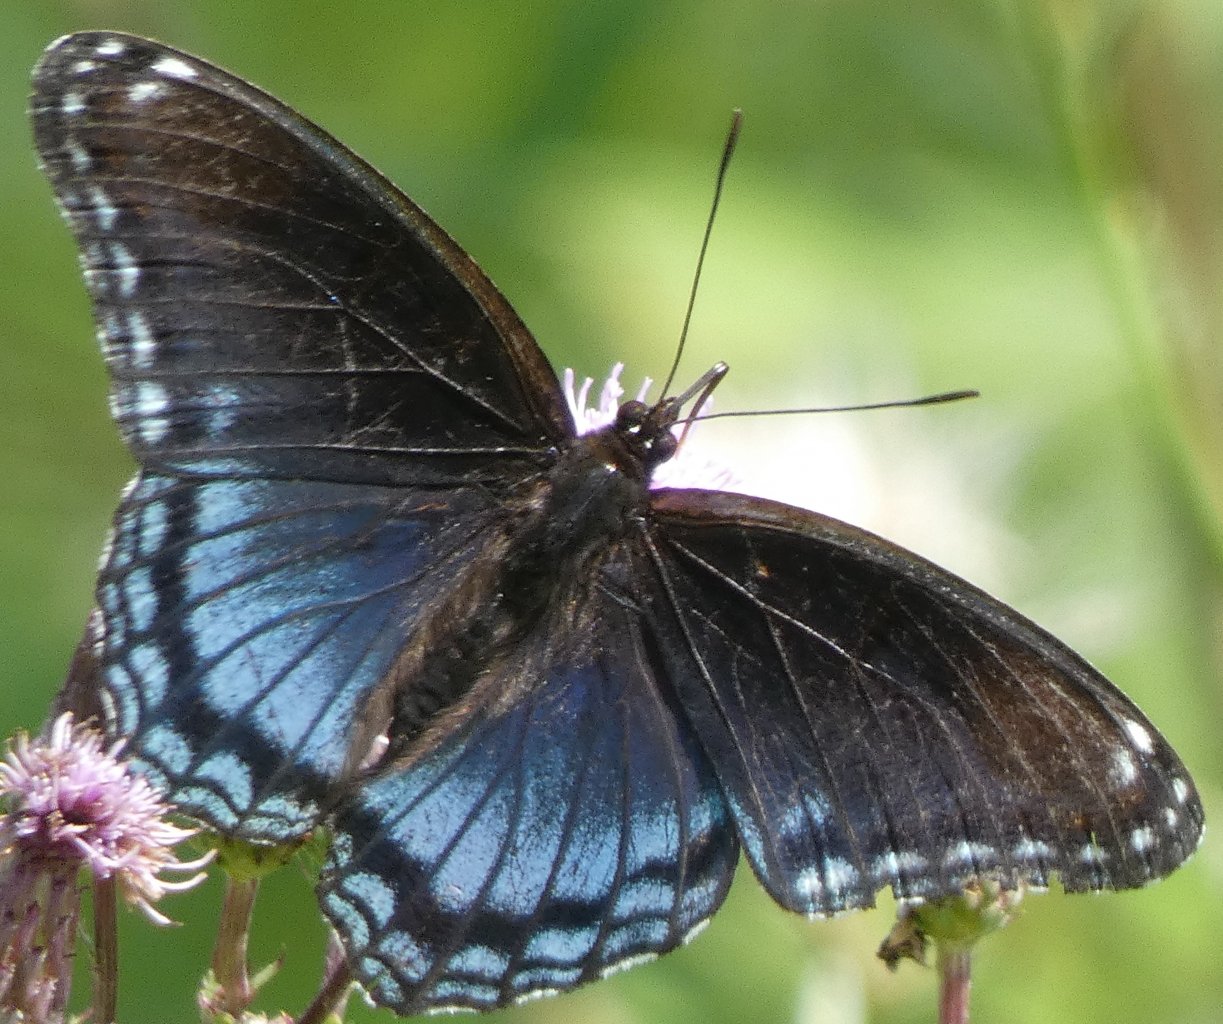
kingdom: Animalia
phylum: Arthropoda
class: Insecta
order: Lepidoptera
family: Nymphalidae
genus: Limenitis
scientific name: Limenitis astyanax
